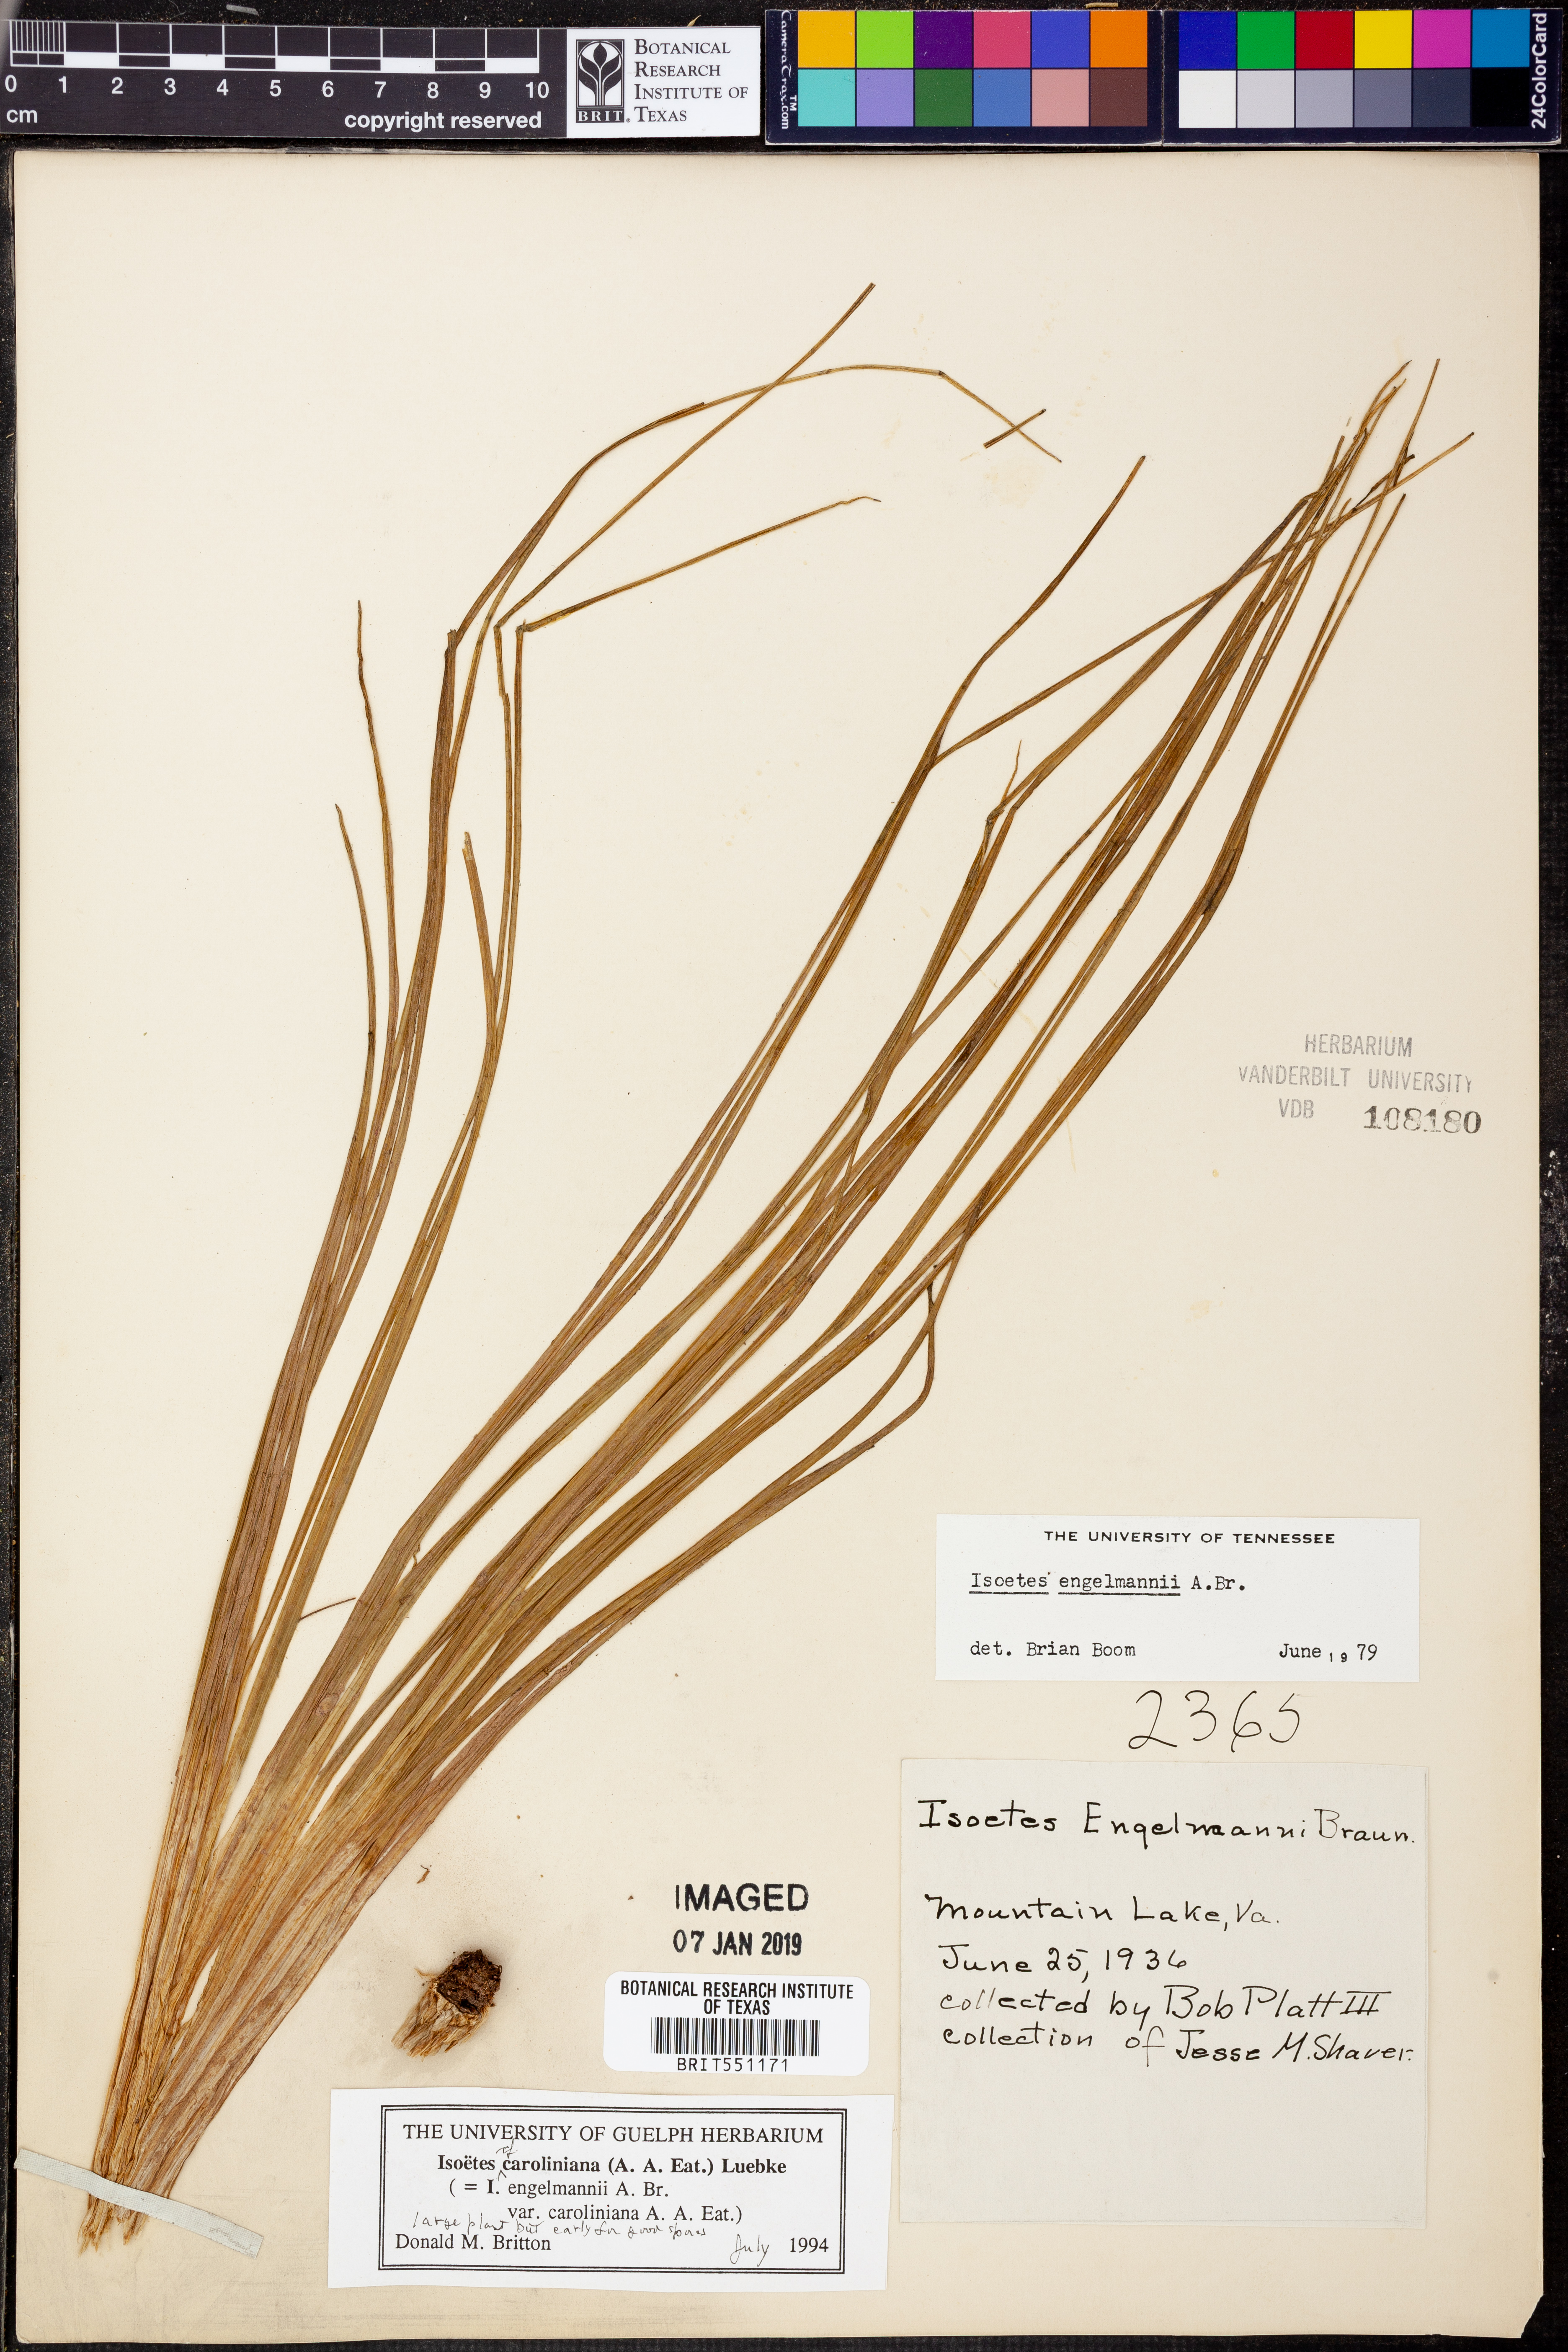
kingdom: Plantae
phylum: Tracheophyta
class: Lycopodiopsida
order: Isoetales
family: Isoetaceae
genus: Isoetes
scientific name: Isoetes caroliniana
